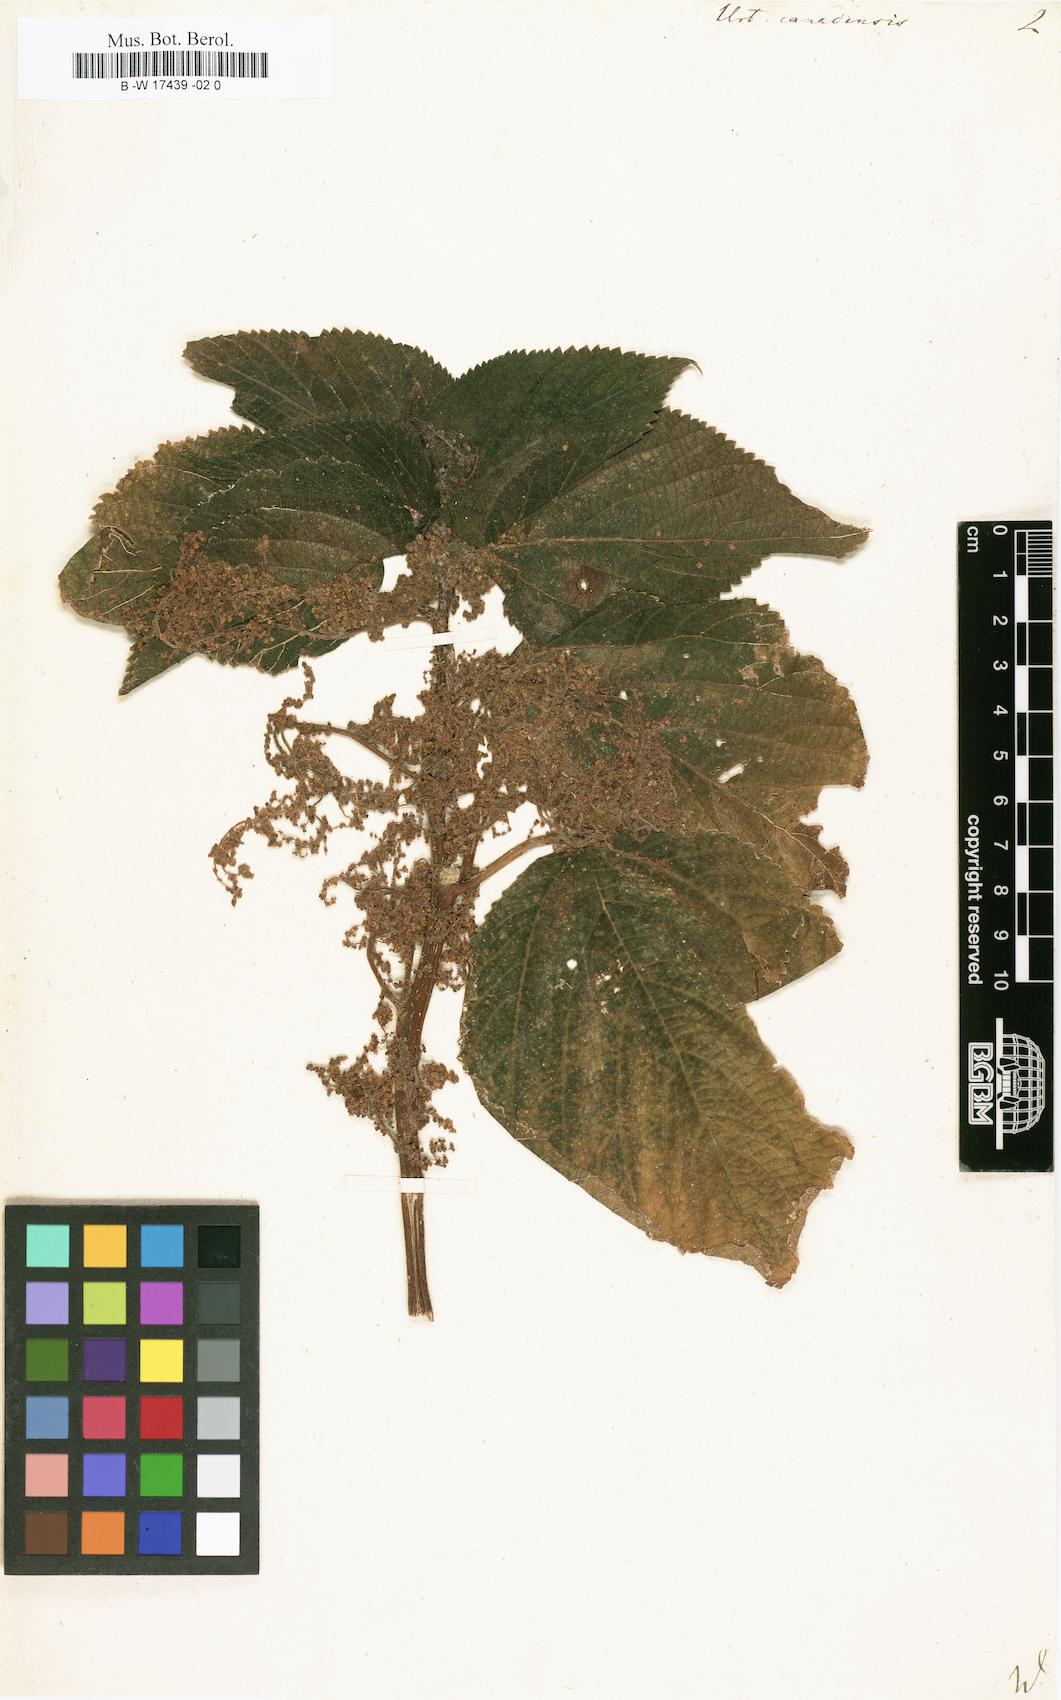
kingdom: Plantae
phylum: Tracheophyta
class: Magnoliopsida
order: Rosales
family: Urticaceae
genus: Laportea
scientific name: Laportea canadensis
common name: Canada nettle
